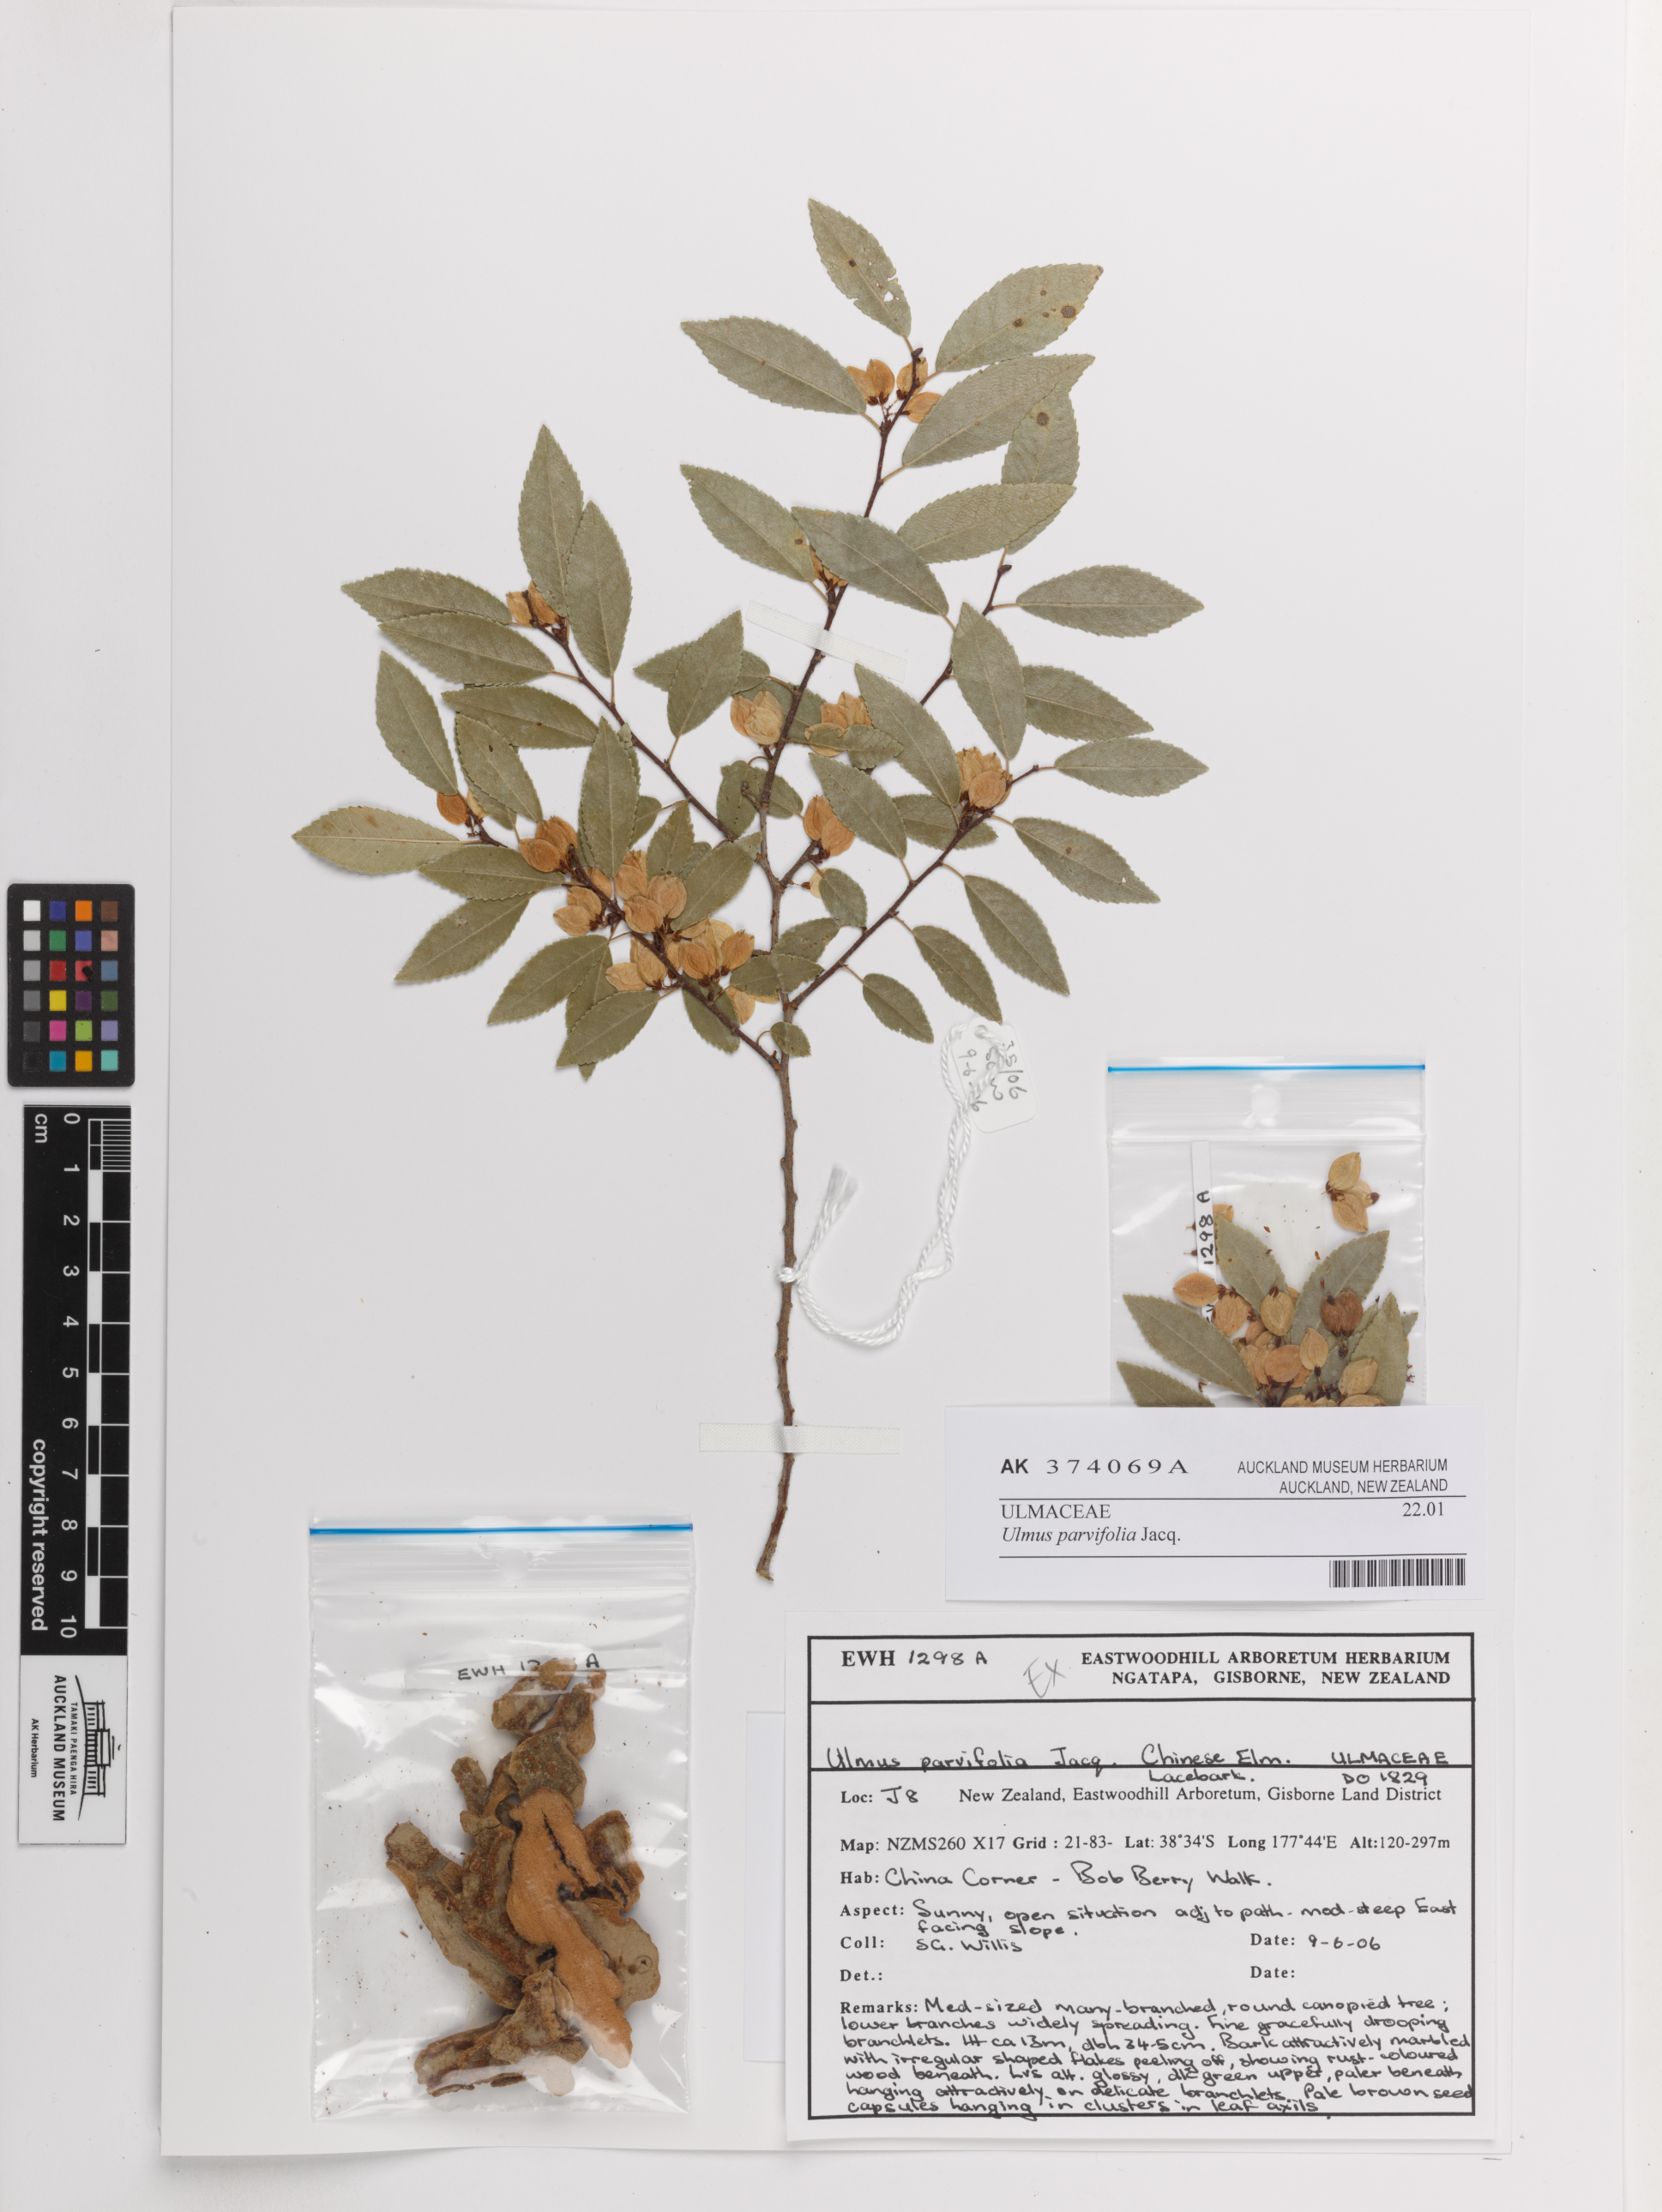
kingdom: Plantae
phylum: Tracheophyta
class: Magnoliopsida
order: Rosales
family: Ulmaceae
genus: Ulmus
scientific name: Ulmus parvifolia
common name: Chinese elm
